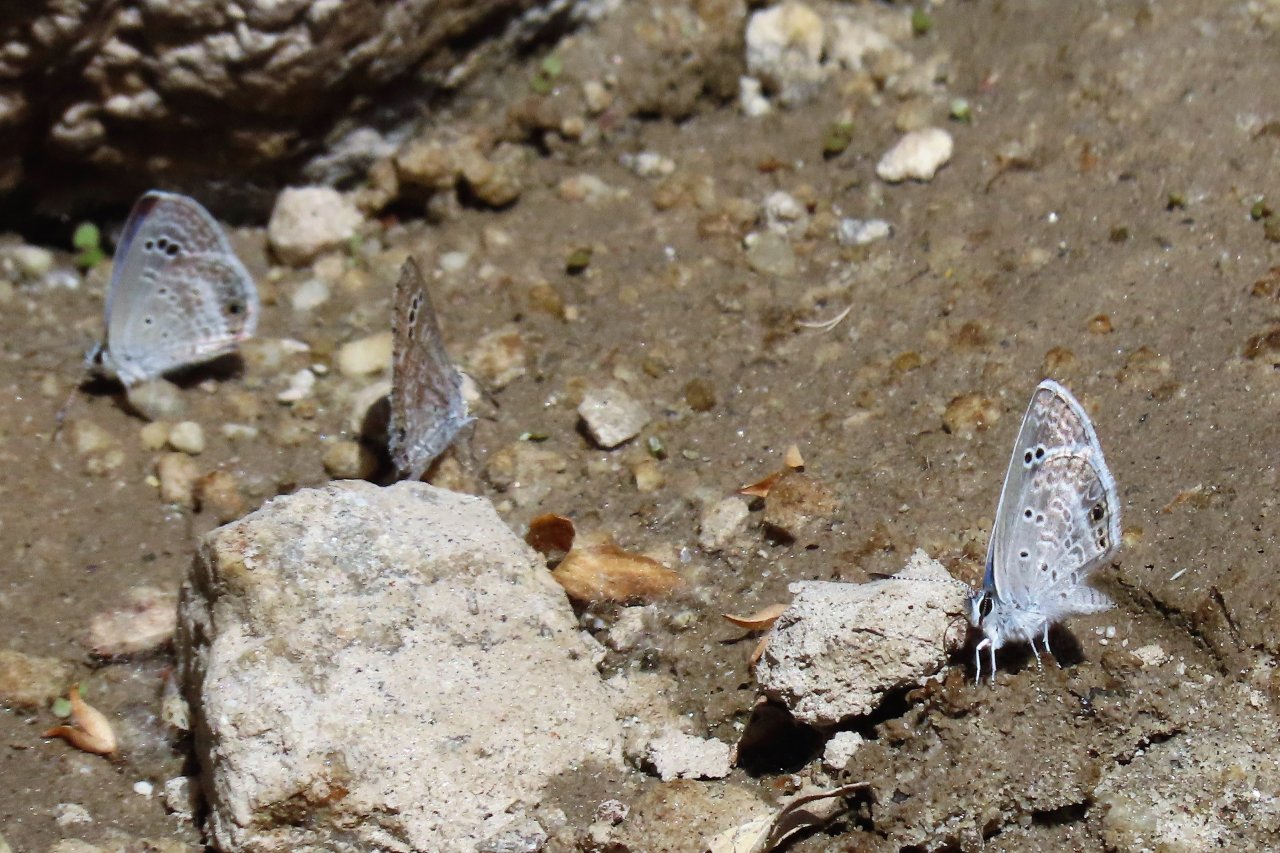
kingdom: Animalia
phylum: Arthropoda
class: Insecta
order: Lepidoptera
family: Lycaenidae
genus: Echinargus
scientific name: Echinargus isola
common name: Reakirt's Blue
